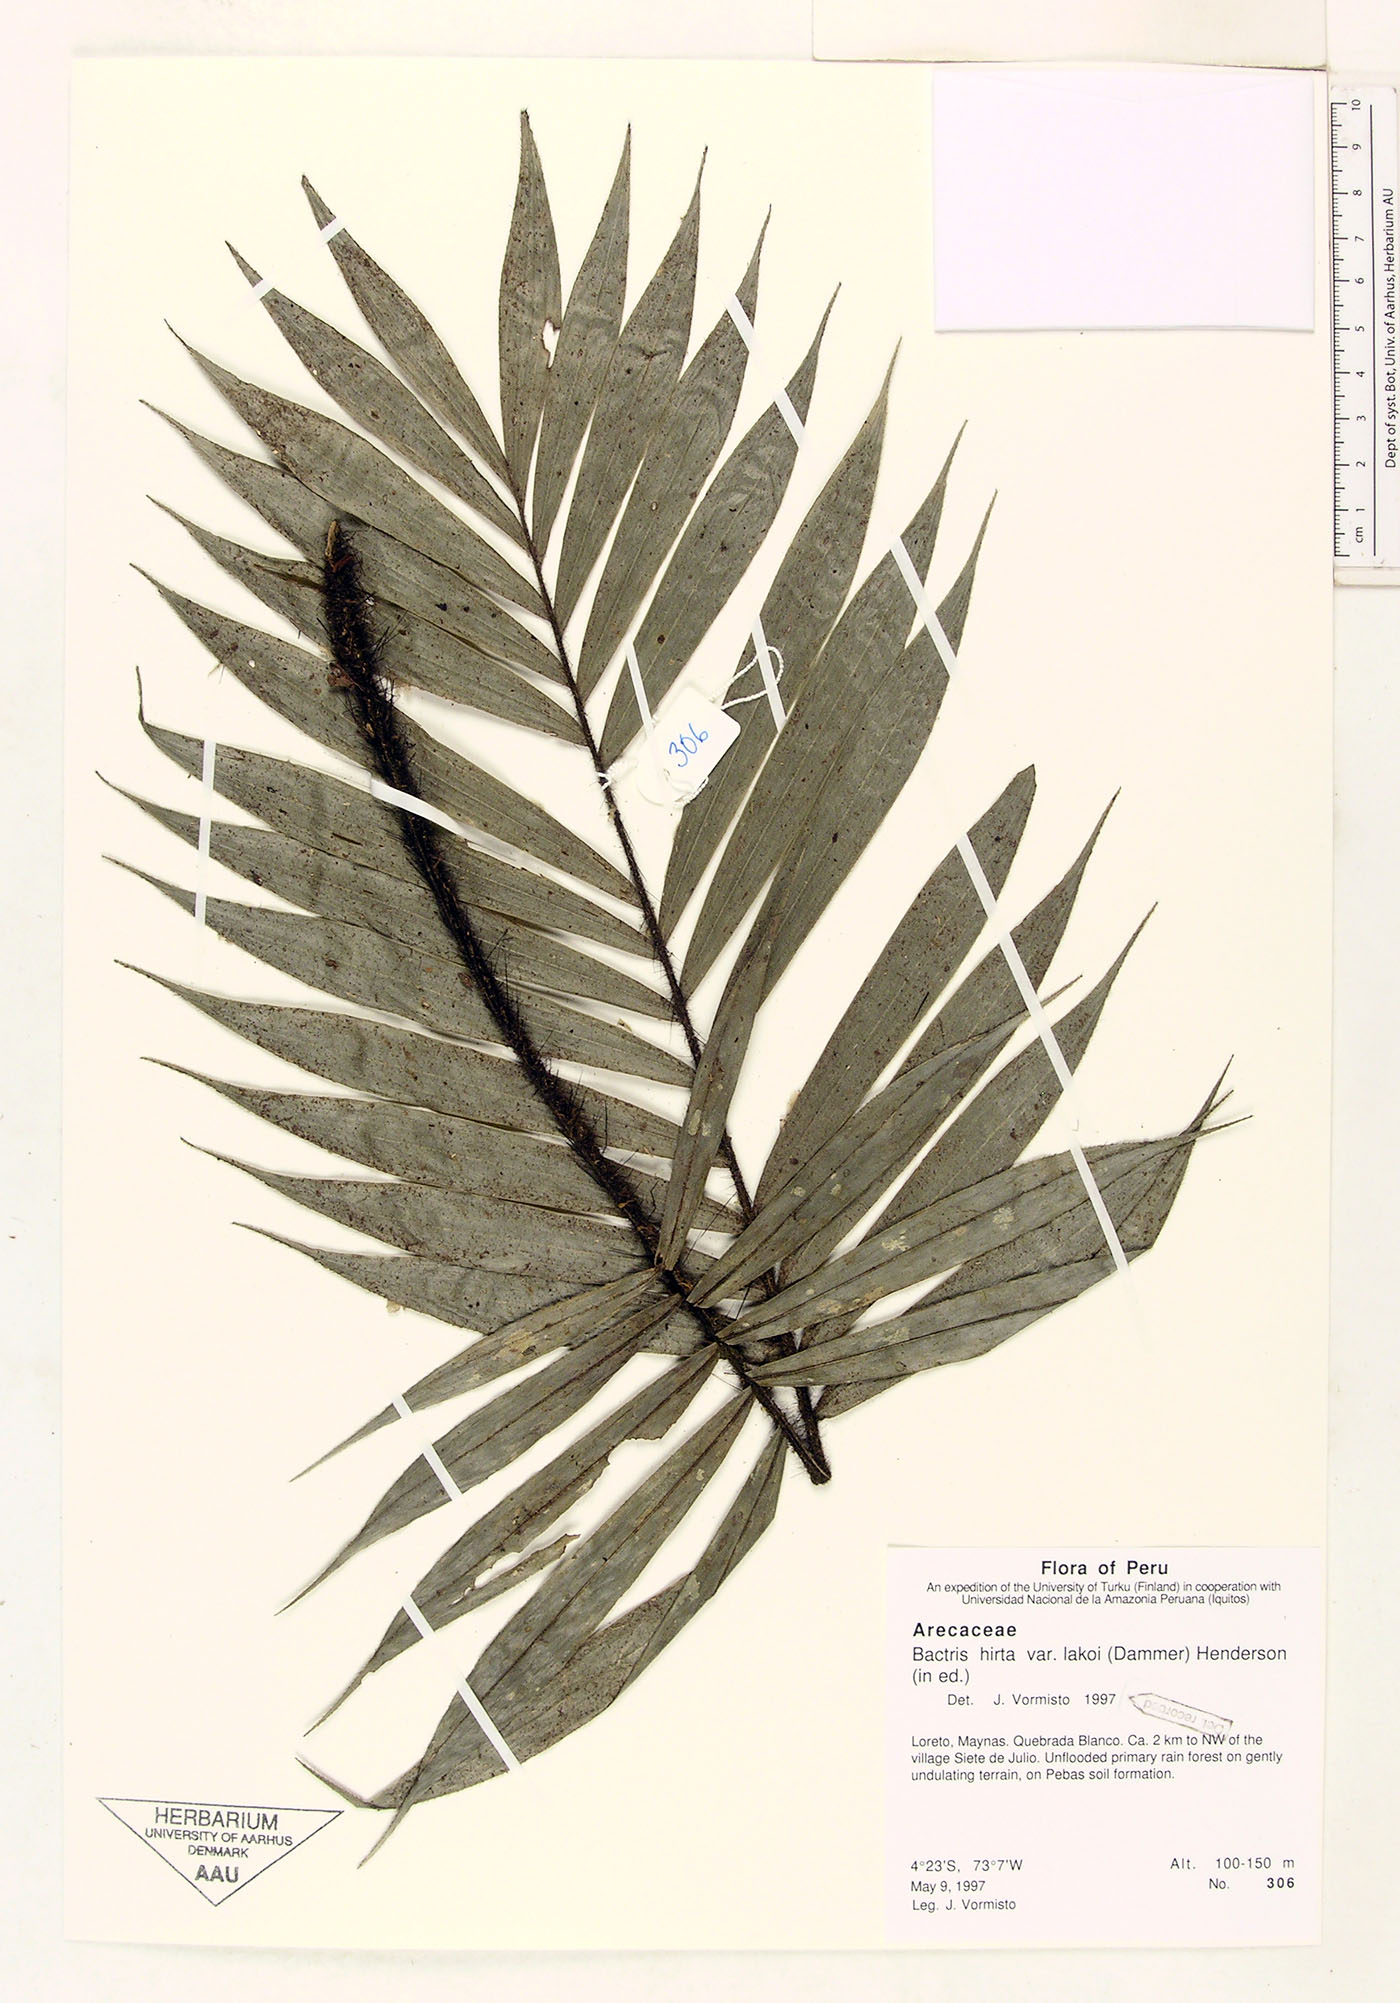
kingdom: Plantae
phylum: Tracheophyta
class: Liliopsida
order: Arecales
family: Arecaceae
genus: Bactris
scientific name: Bactris hirta
